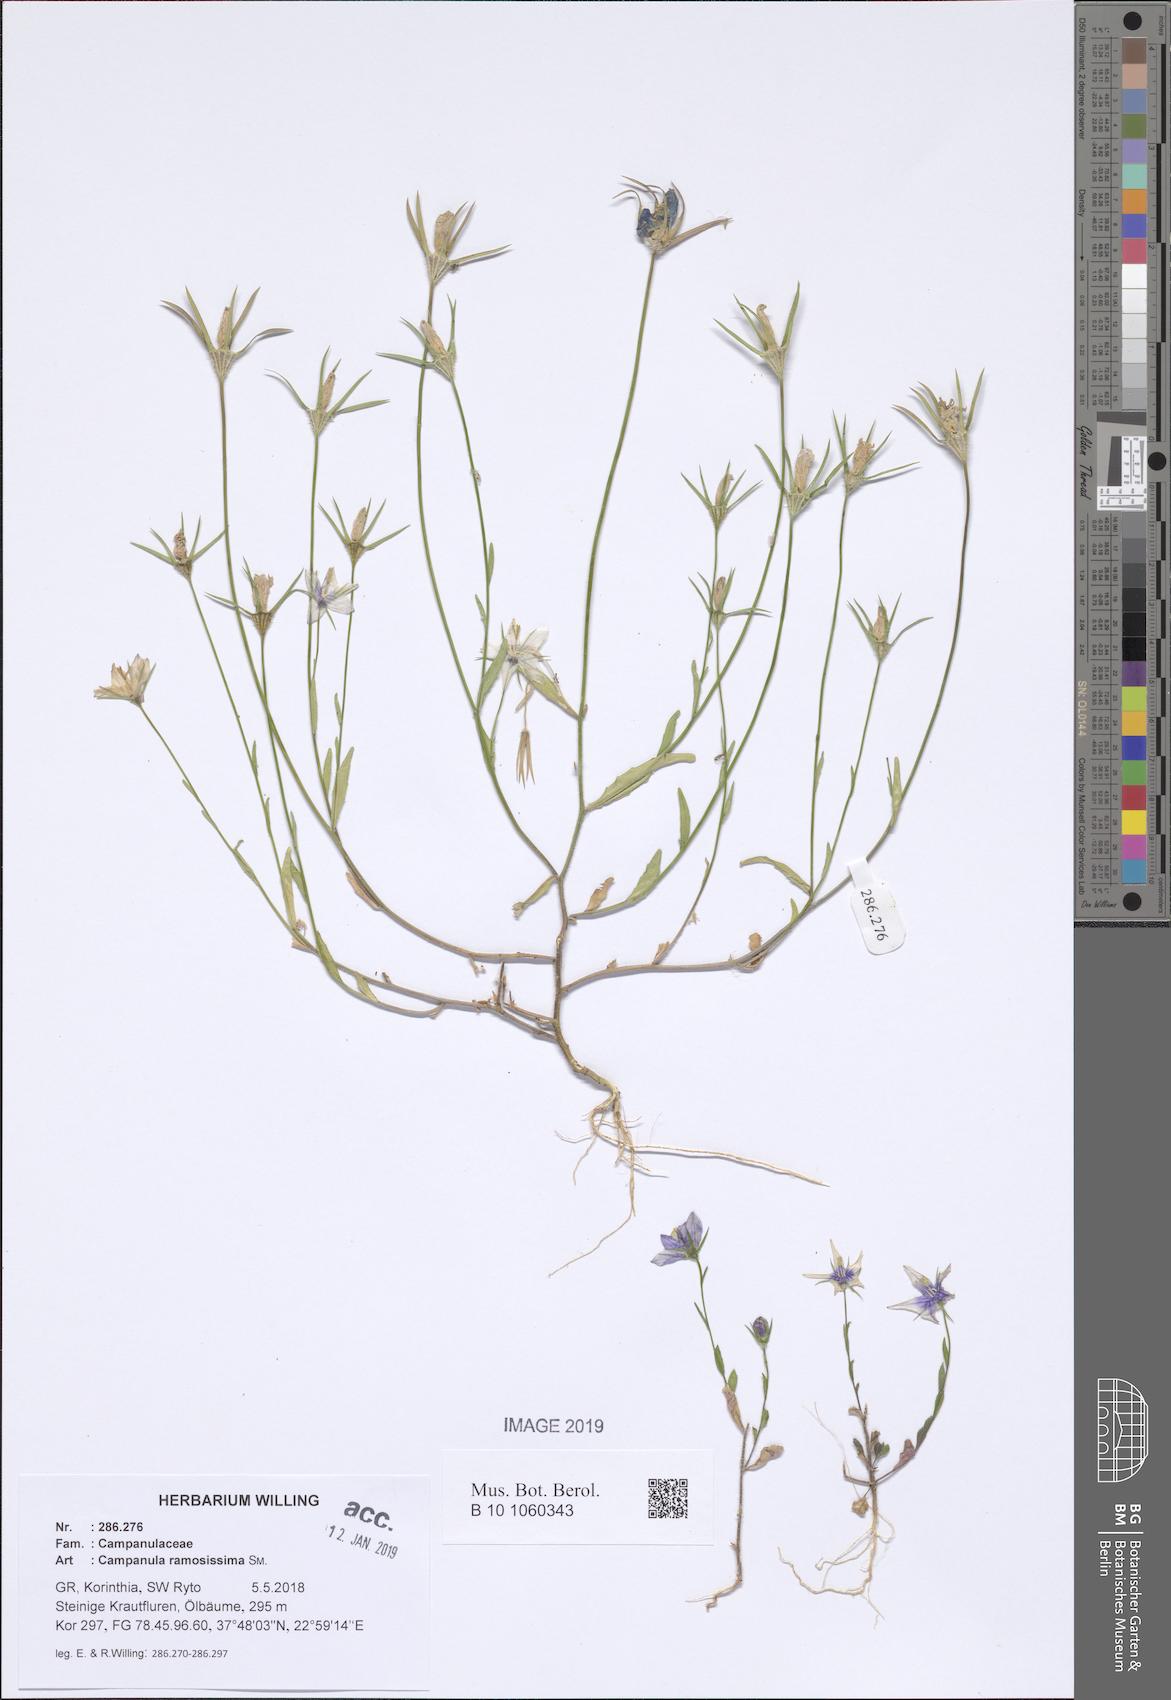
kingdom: Plantae
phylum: Tracheophyta
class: Magnoliopsida
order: Asterales
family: Campanulaceae
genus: Campanula
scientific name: Campanula ramosissima
